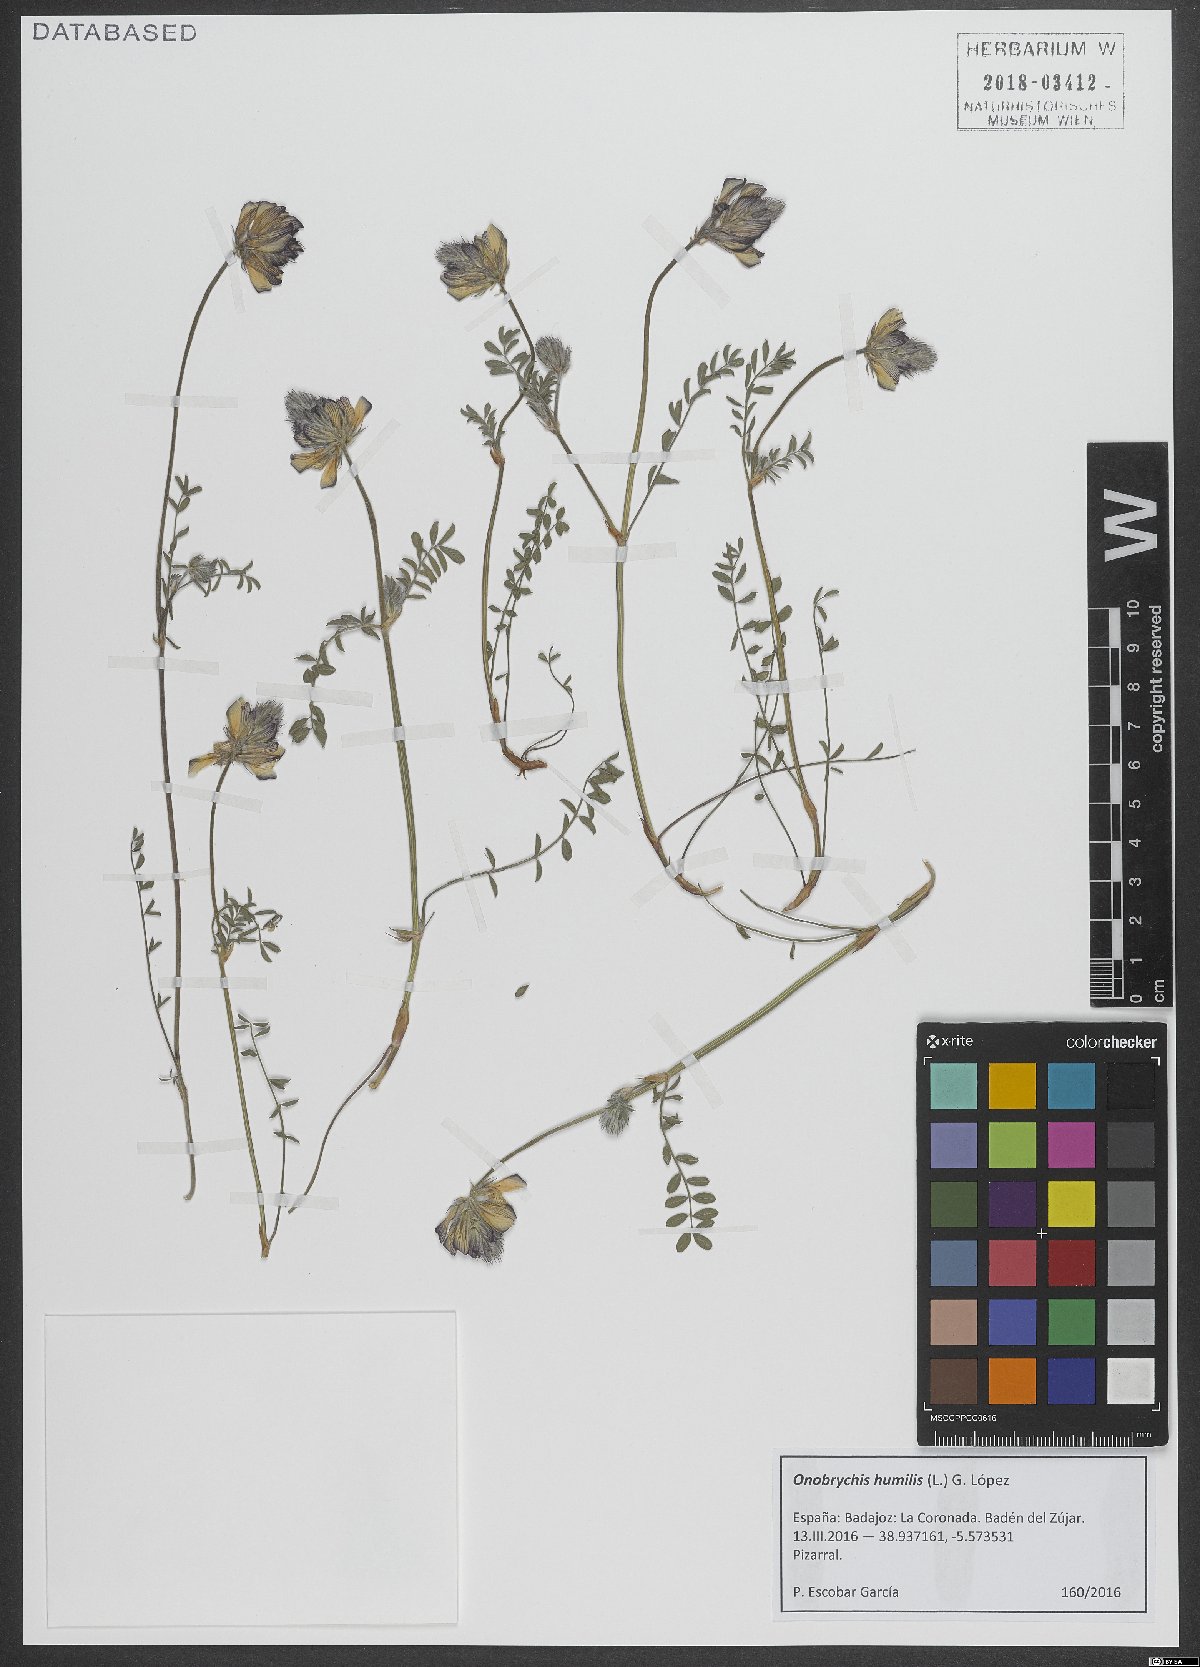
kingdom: Plantae
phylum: Tracheophyta
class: Magnoliopsida
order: Fabales
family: Fabaceae
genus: Onobrychis
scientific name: Onobrychis humilis
